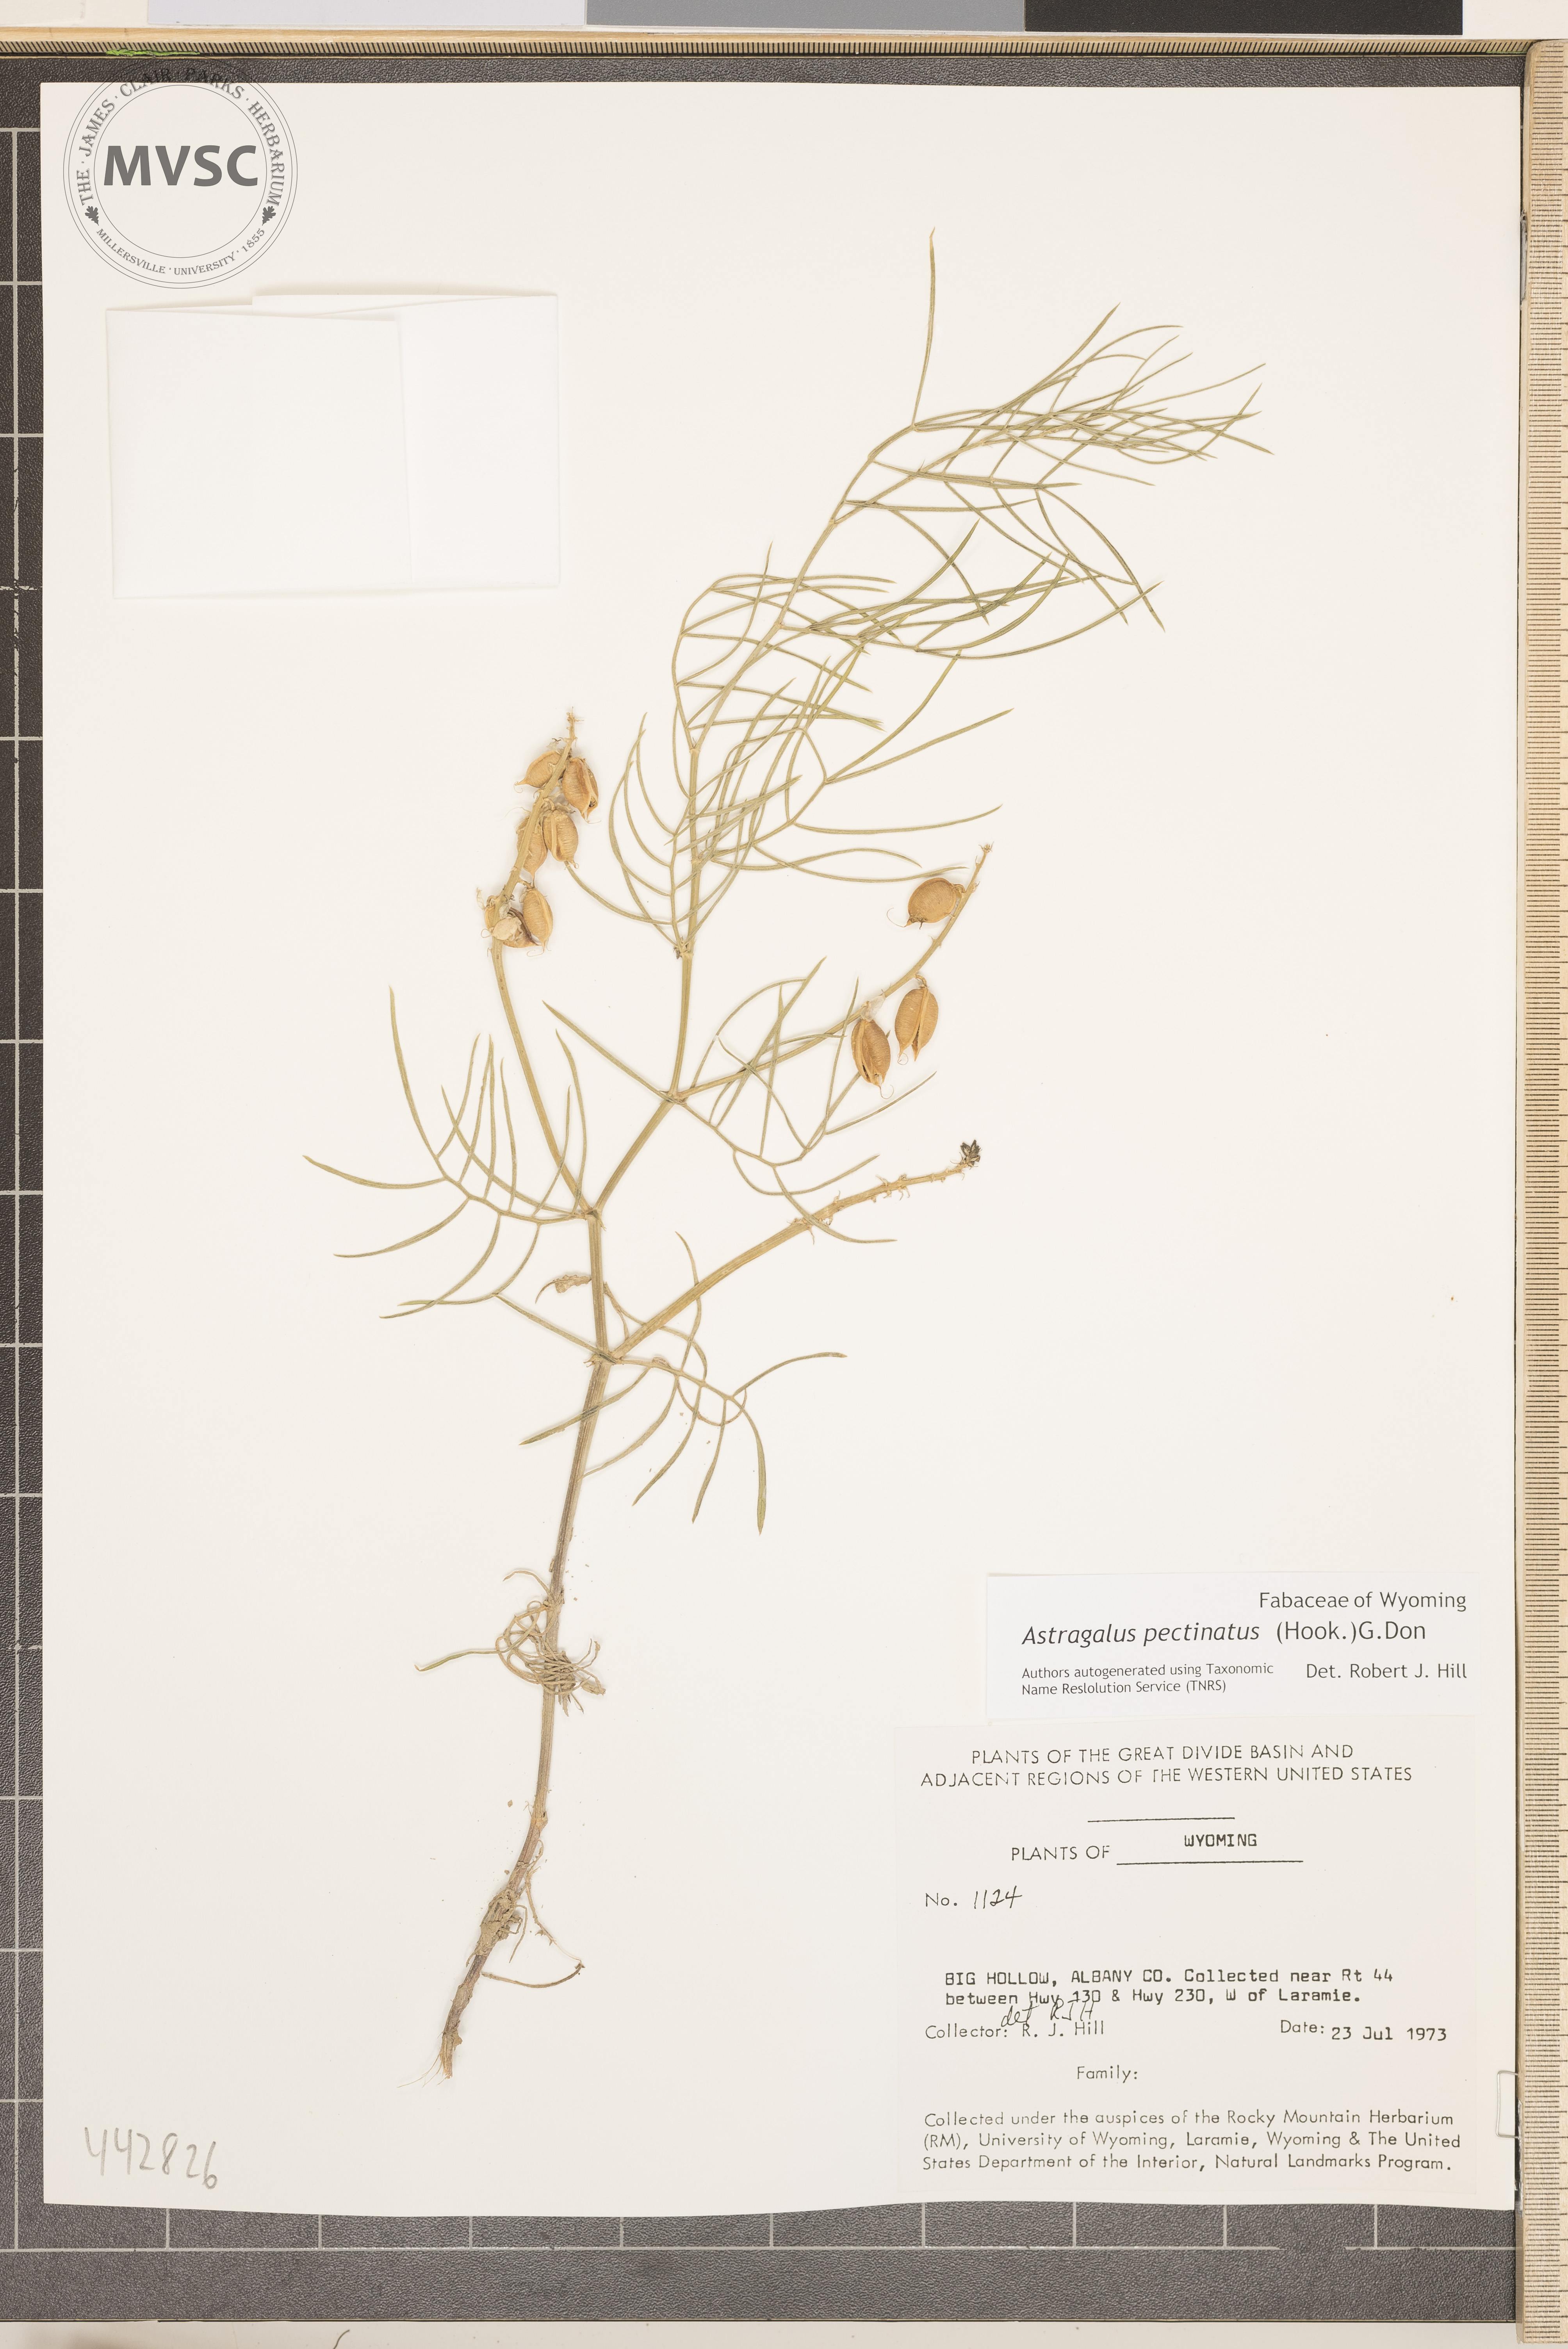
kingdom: Plantae
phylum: Tracheophyta
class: Magnoliopsida
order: Fabales
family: Fabaceae
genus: Astragalus
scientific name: Astragalus pectinatus
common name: Tine-leaf milk-vetch
